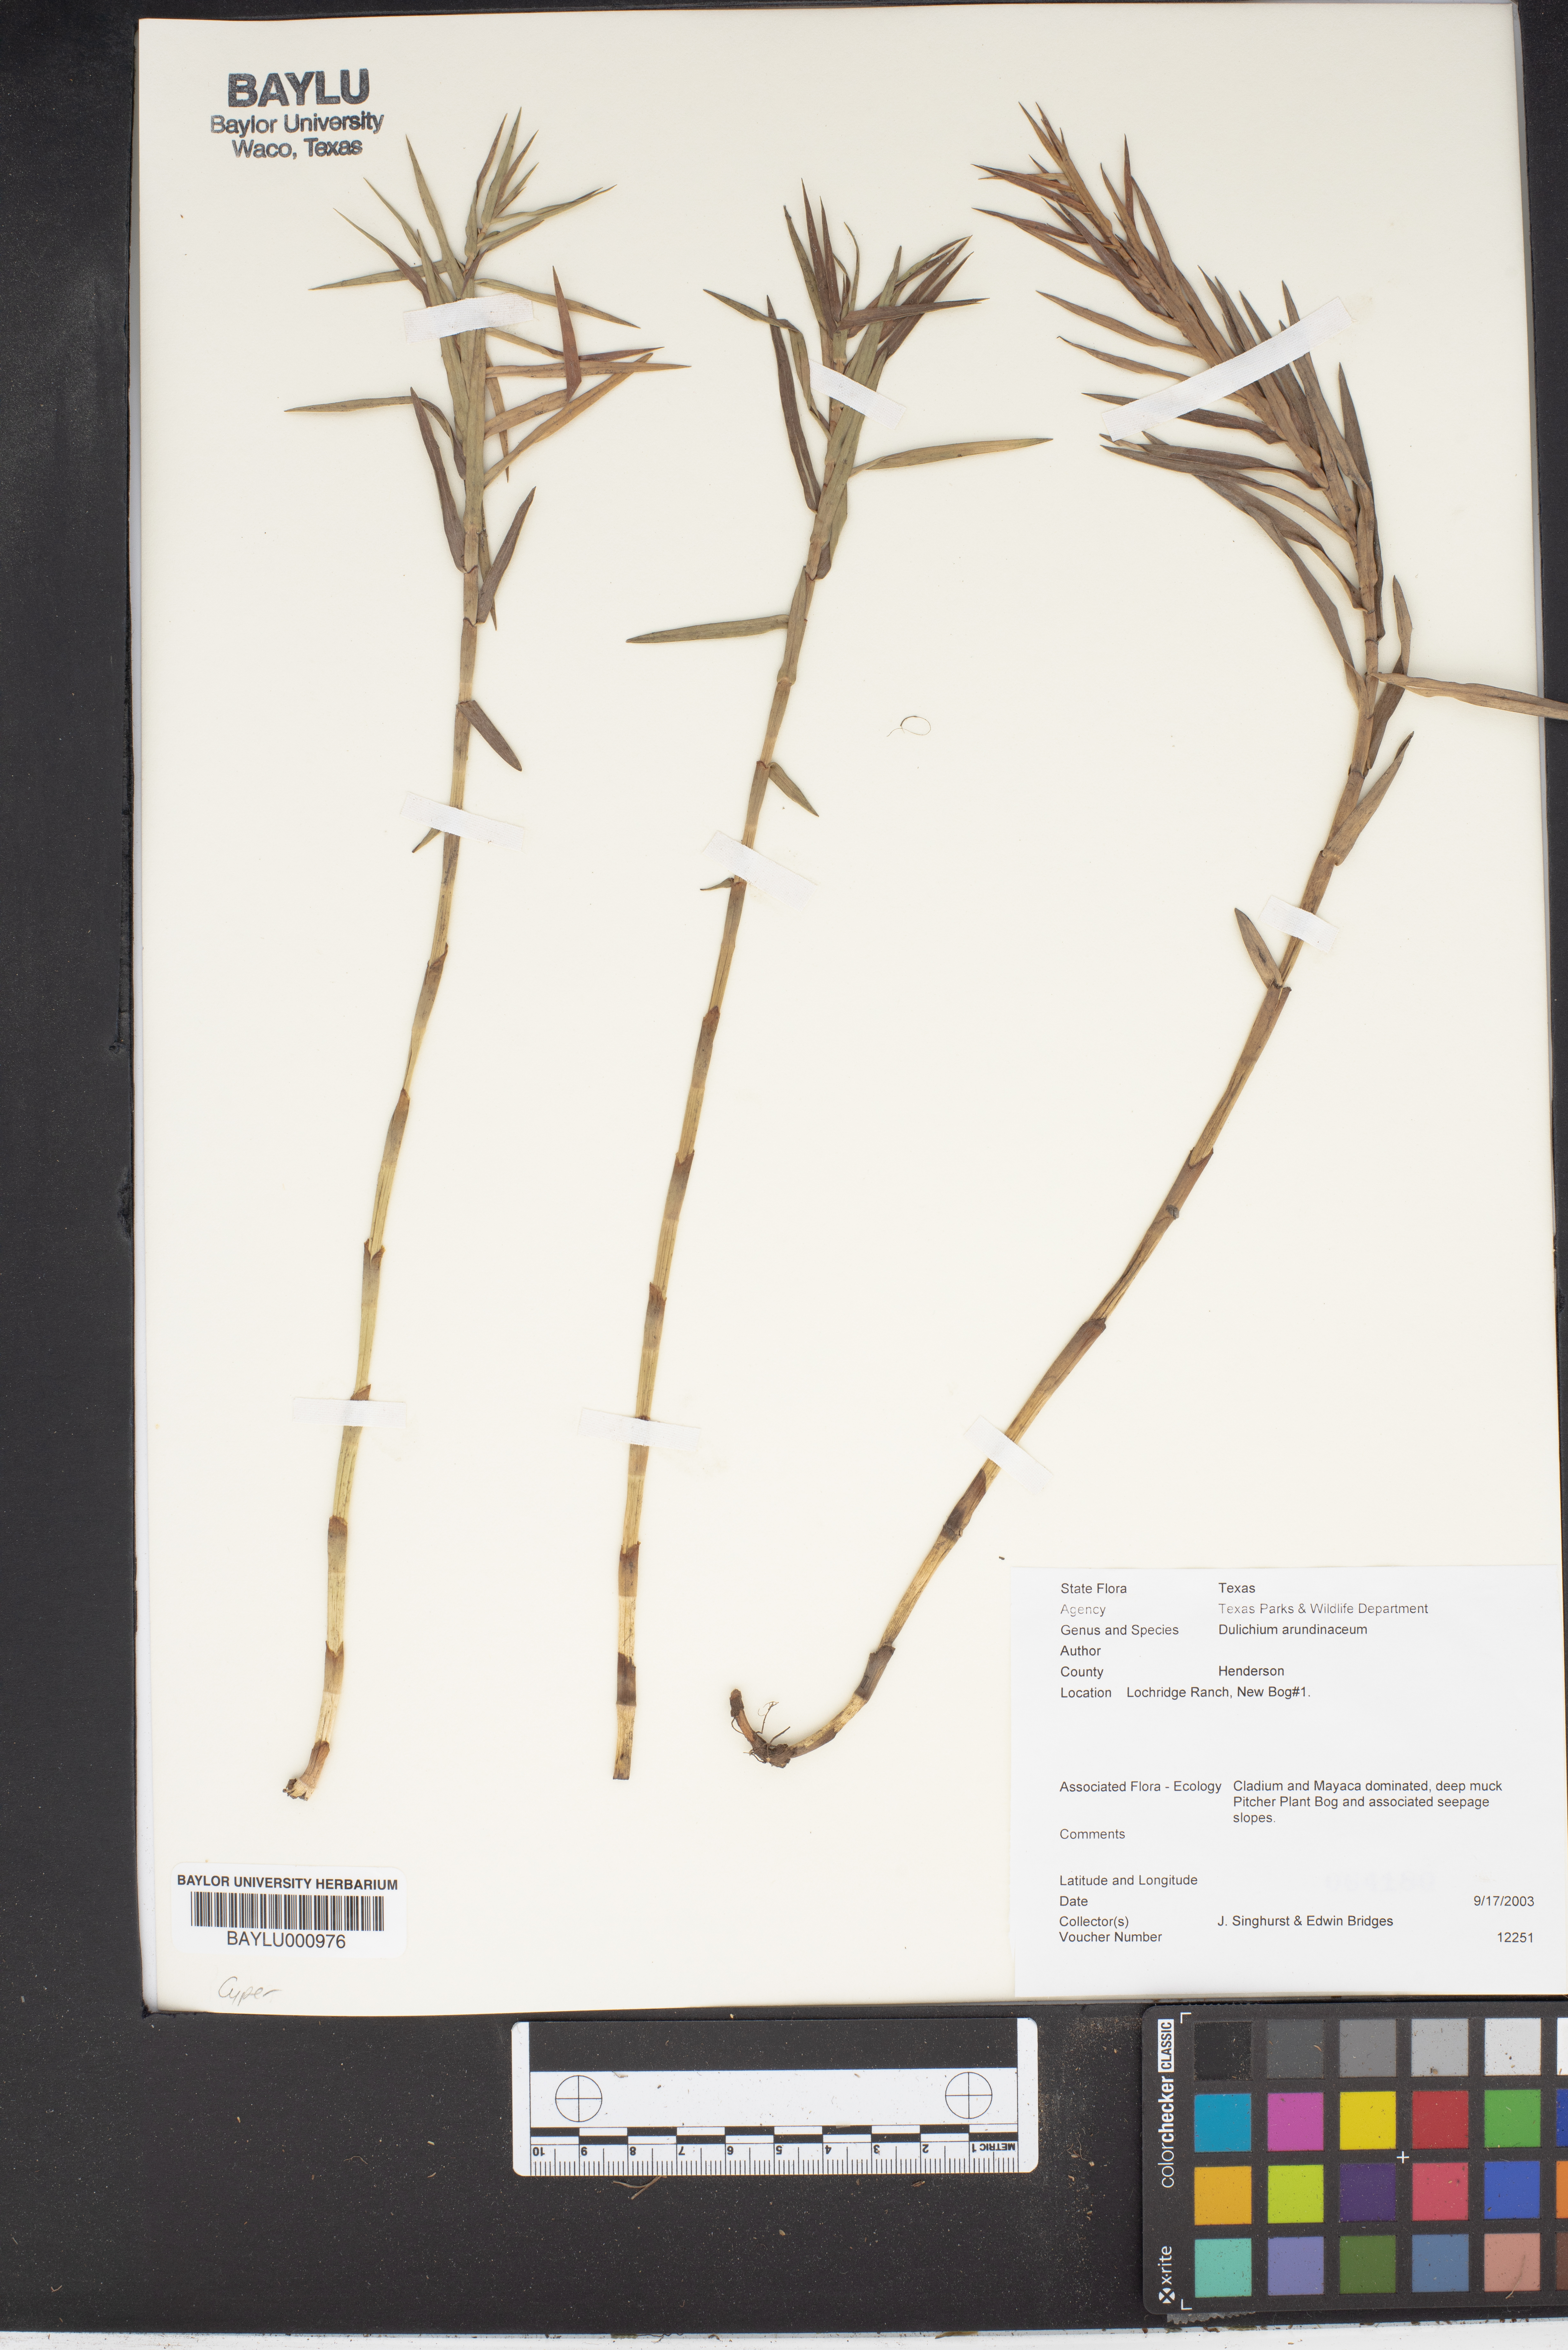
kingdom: Plantae
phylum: Tracheophyta
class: Liliopsida
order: Poales
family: Cyperaceae
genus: Dulichium
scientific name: Dulichium arundinaceum
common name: Three-way sedge
